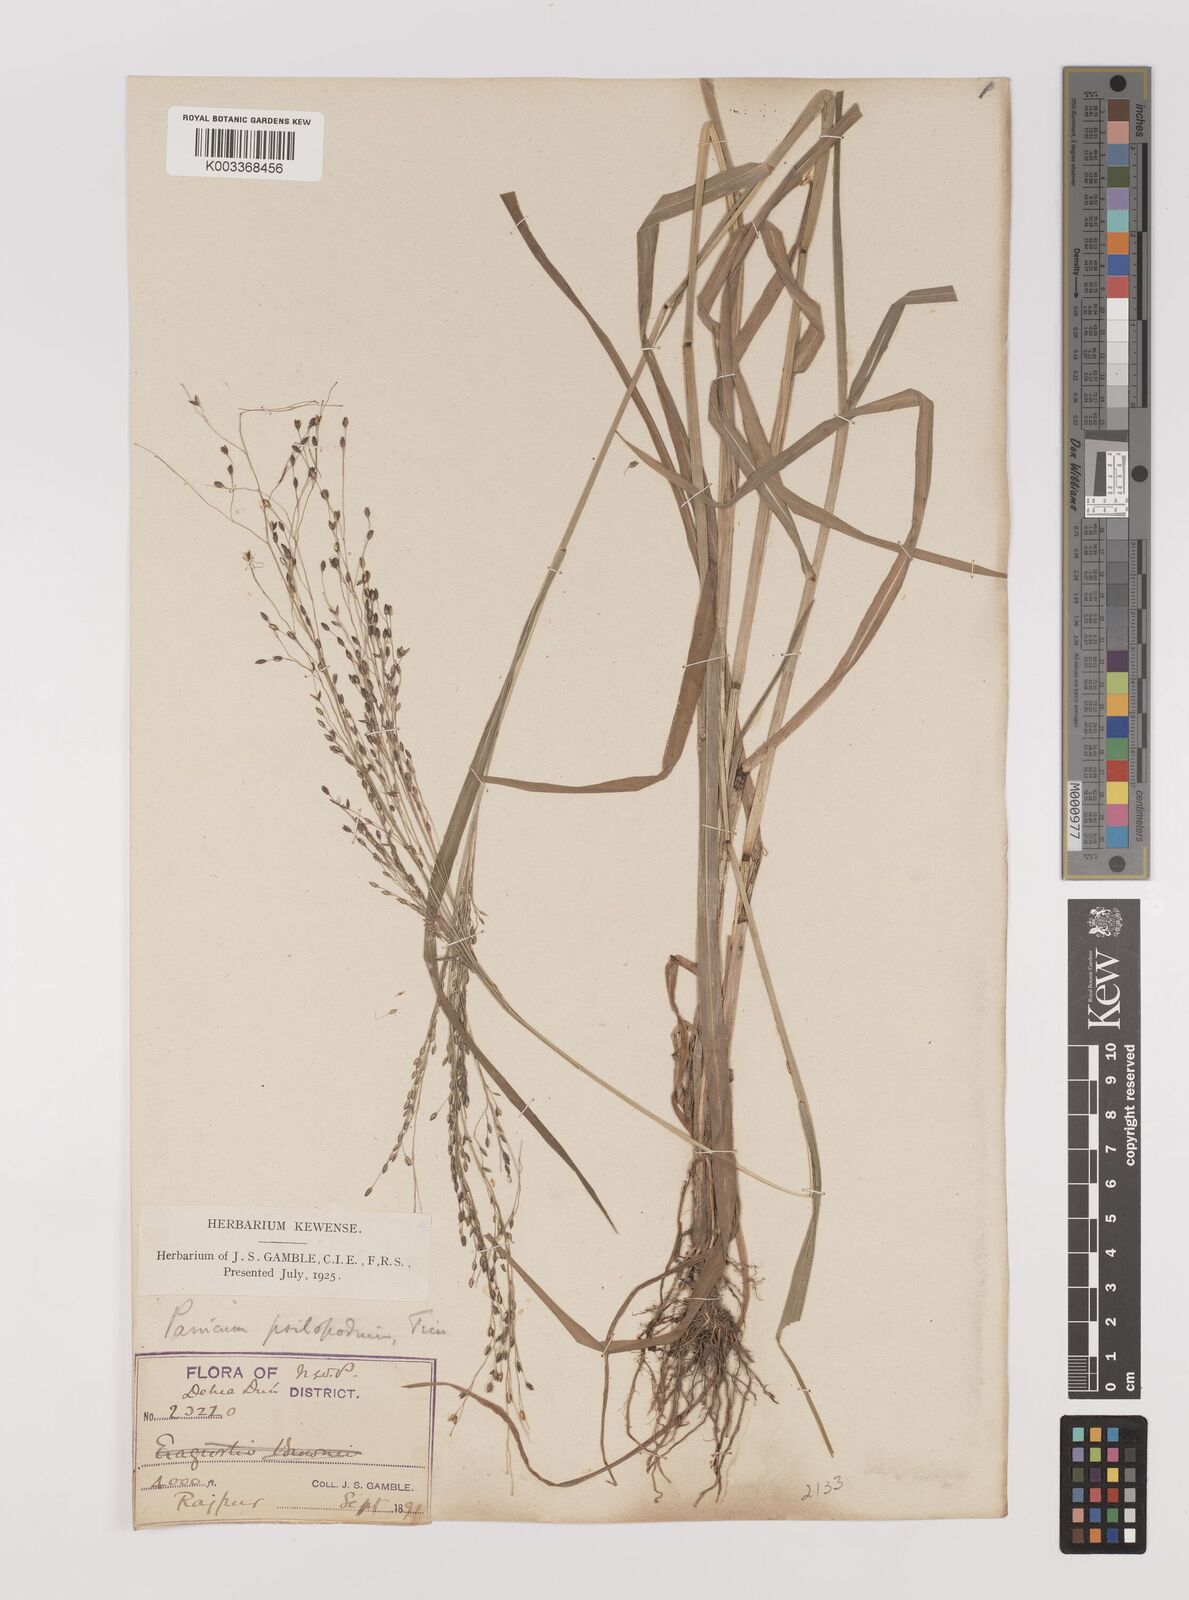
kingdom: Plantae
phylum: Tracheophyta
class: Liliopsida
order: Poales
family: Poaceae
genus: Panicum
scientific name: Panicum sumatrense
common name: Little millet
